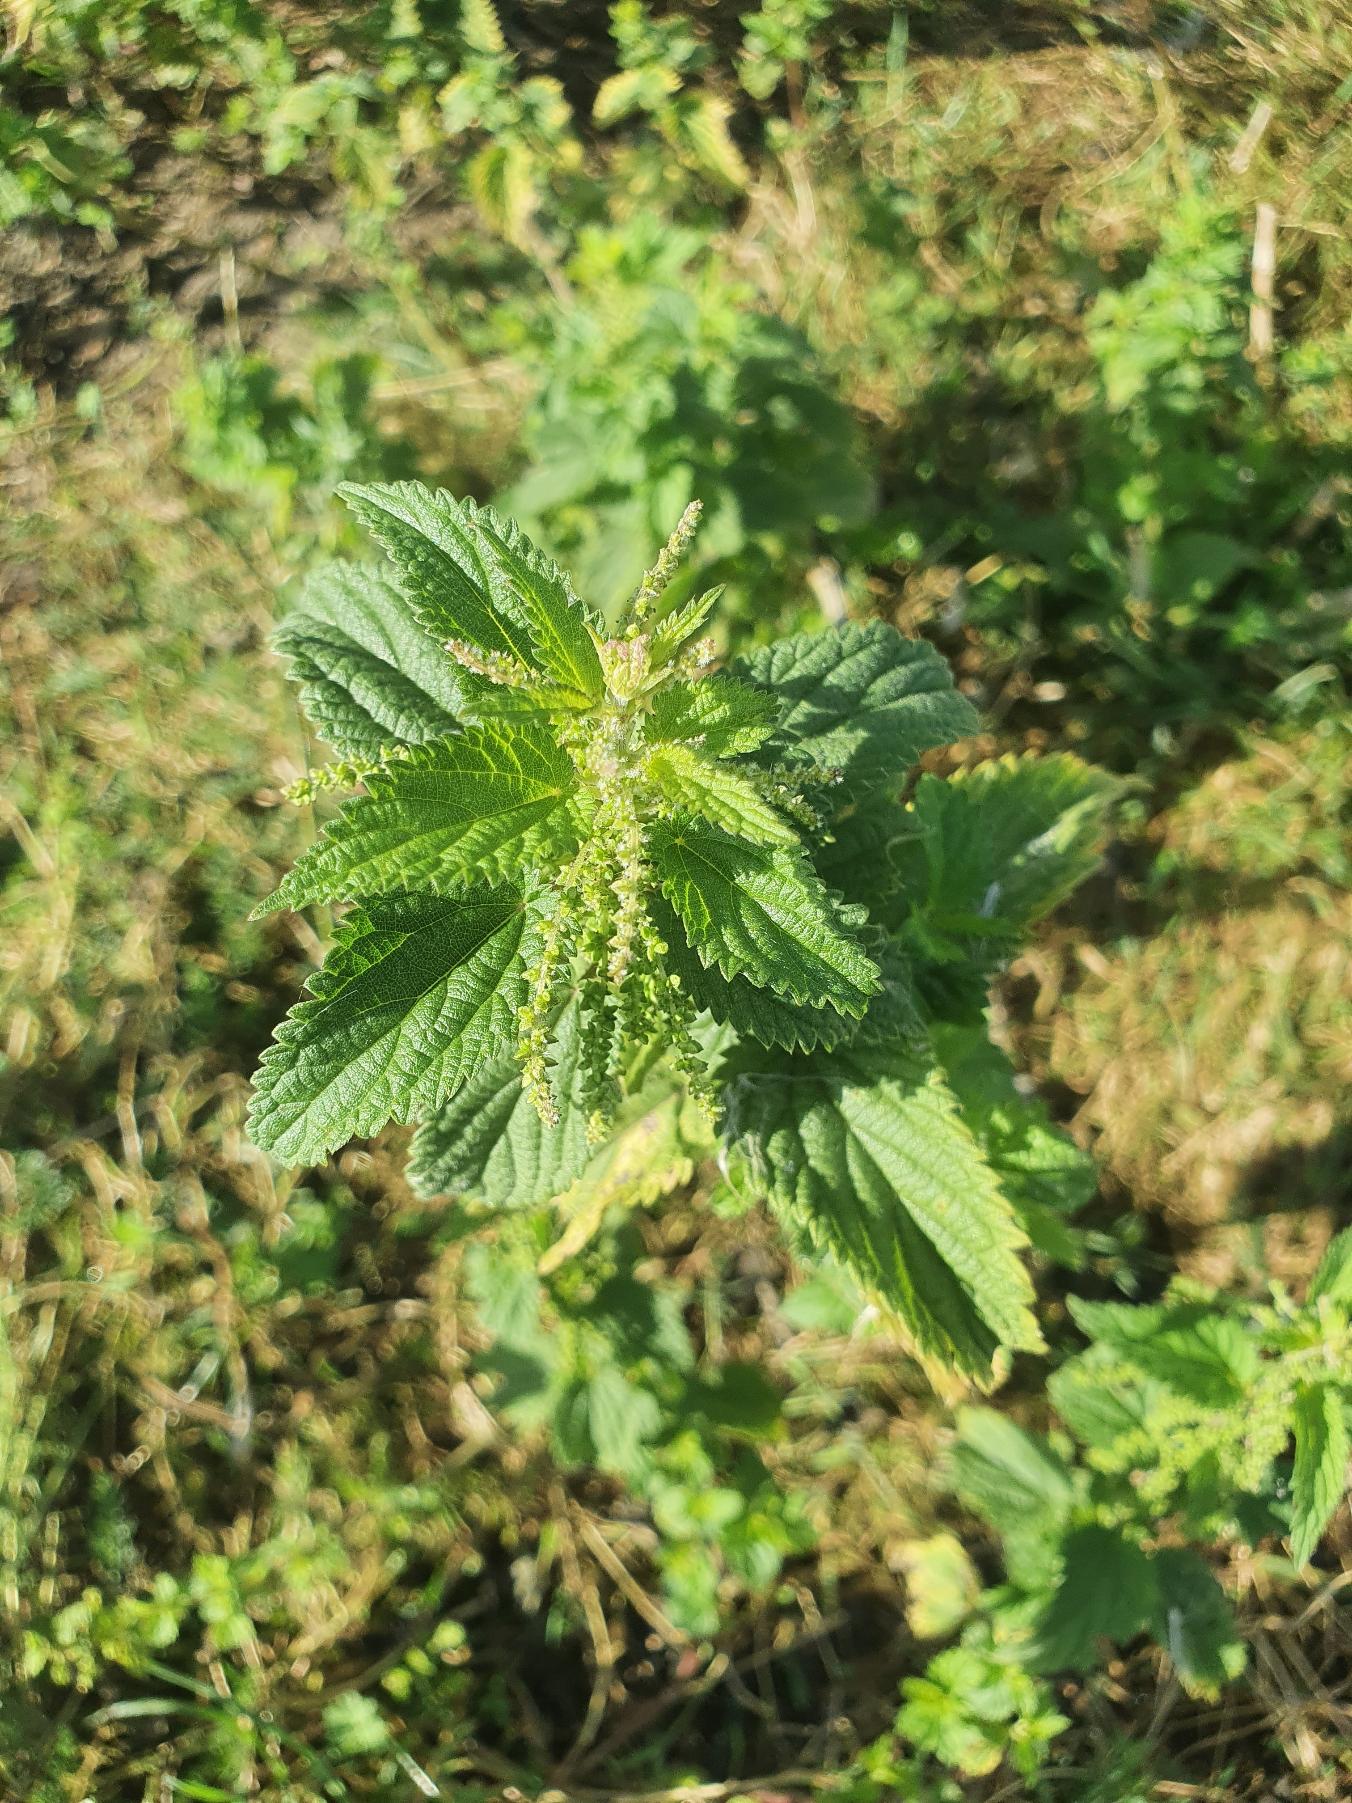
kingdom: Plantae
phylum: Tracheophyta
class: Magnoliopsida
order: Rosales
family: Urticaceae
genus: Urtica
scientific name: Urtica dioica
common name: Stor nælde
